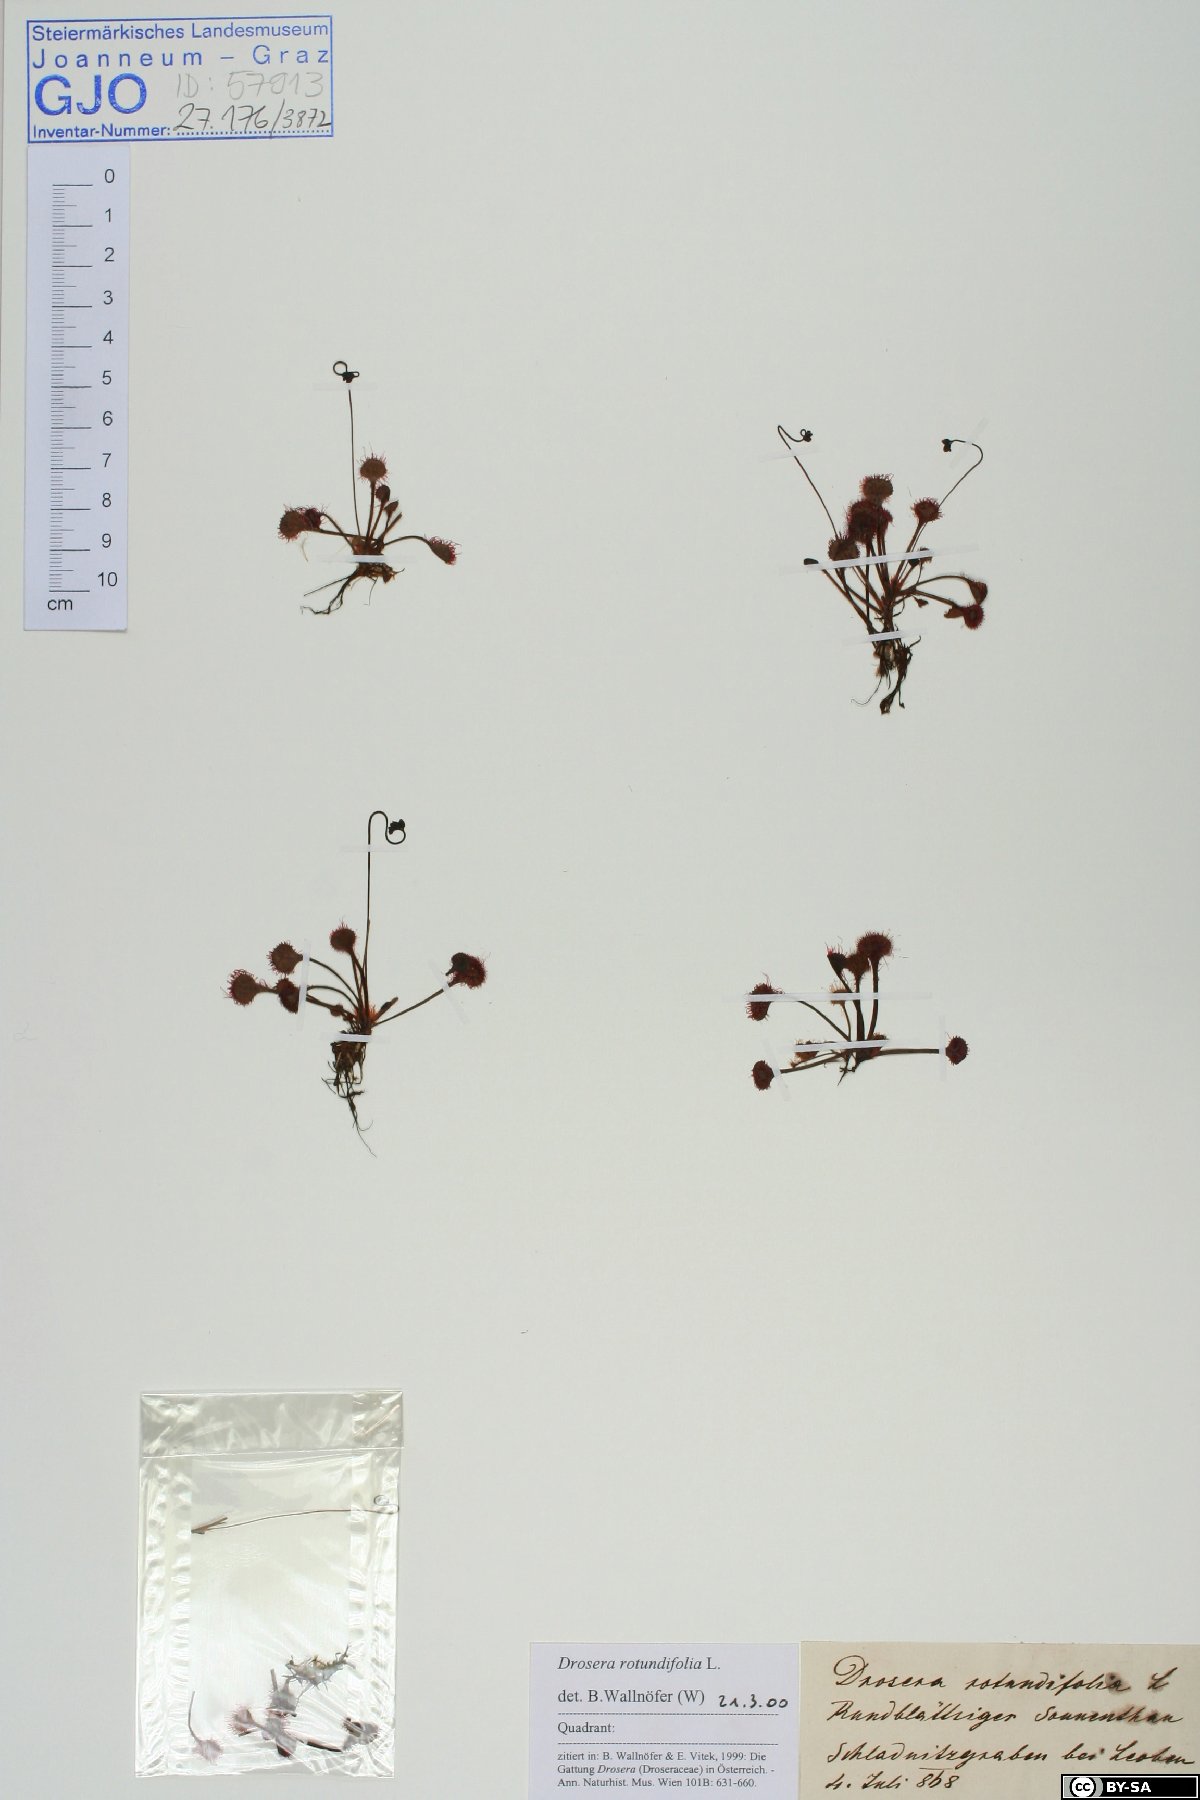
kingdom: Plantae
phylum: Tracheophyta
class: Magnoliopsida
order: Caryophyllales
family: Droseraceae
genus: Drosera
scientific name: Drosera rotundifolia
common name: Round-leaved sundew
